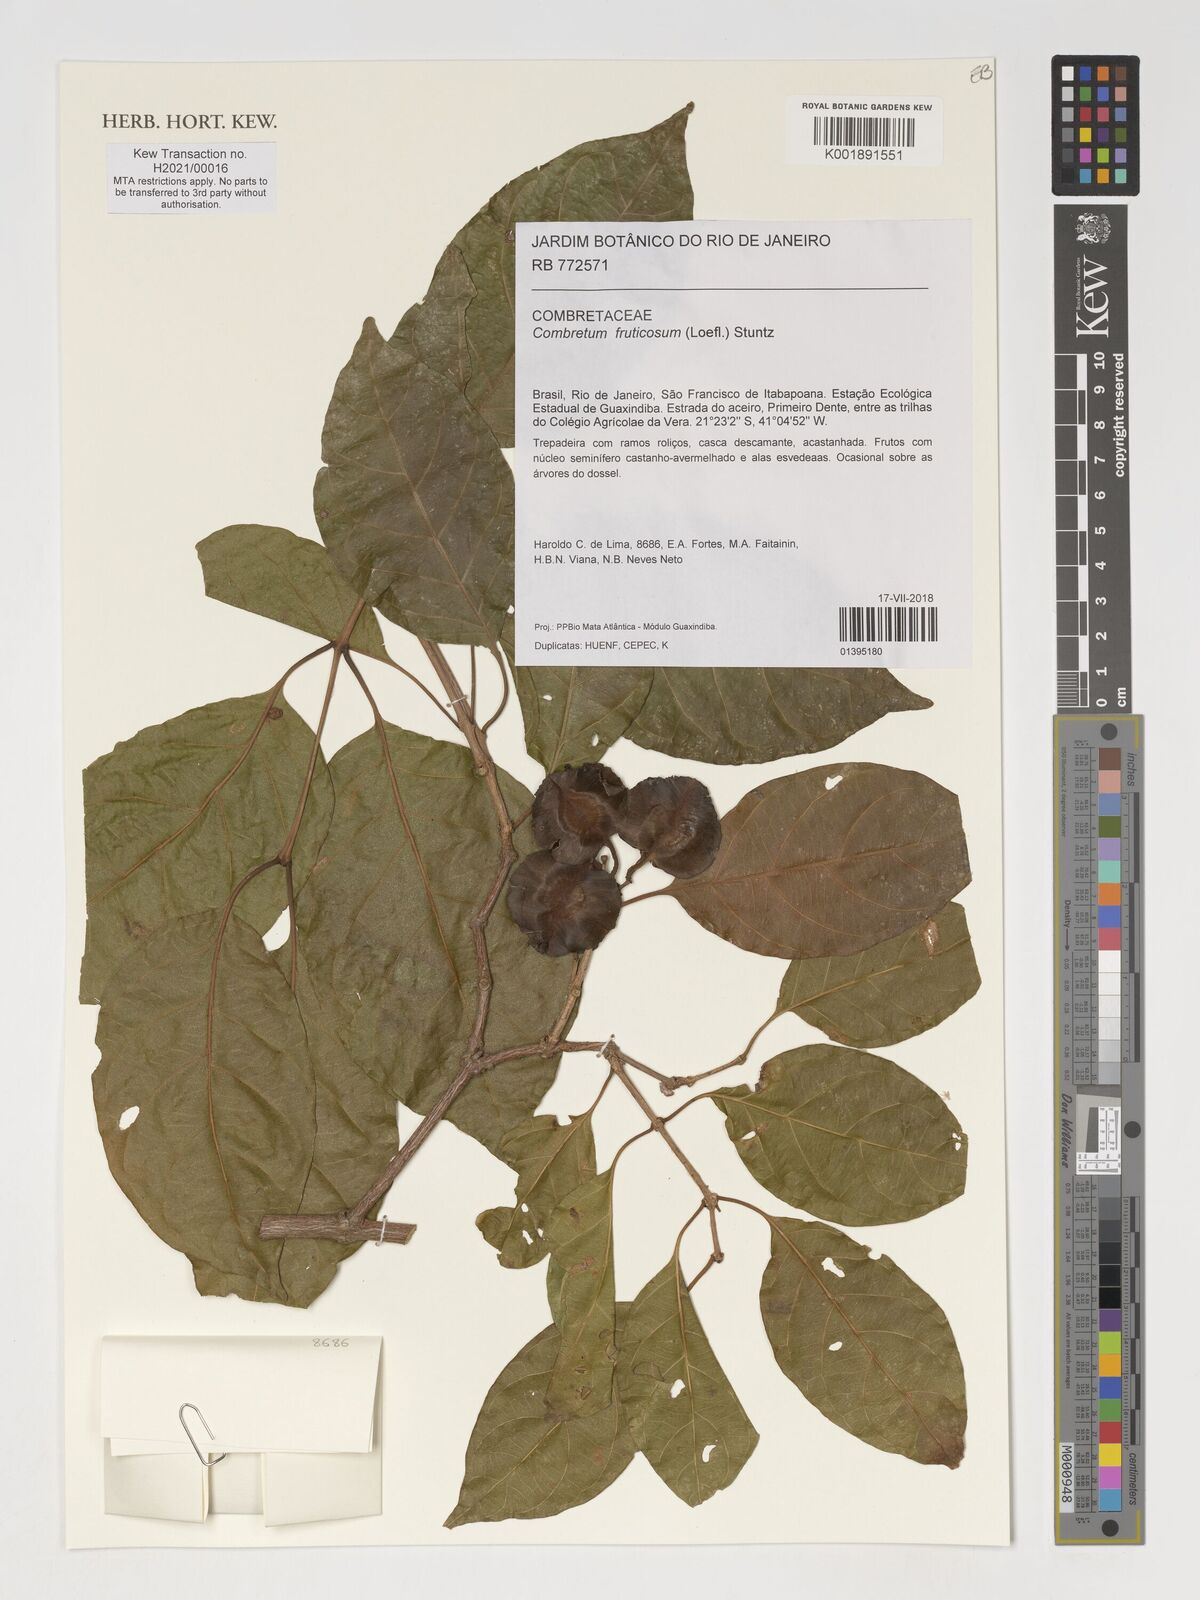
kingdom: Plantae
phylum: Tracheophyta
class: Magnoliopsida
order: Myrtales
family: Combretaceae
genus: Combretum
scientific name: Combretum fruticosum
